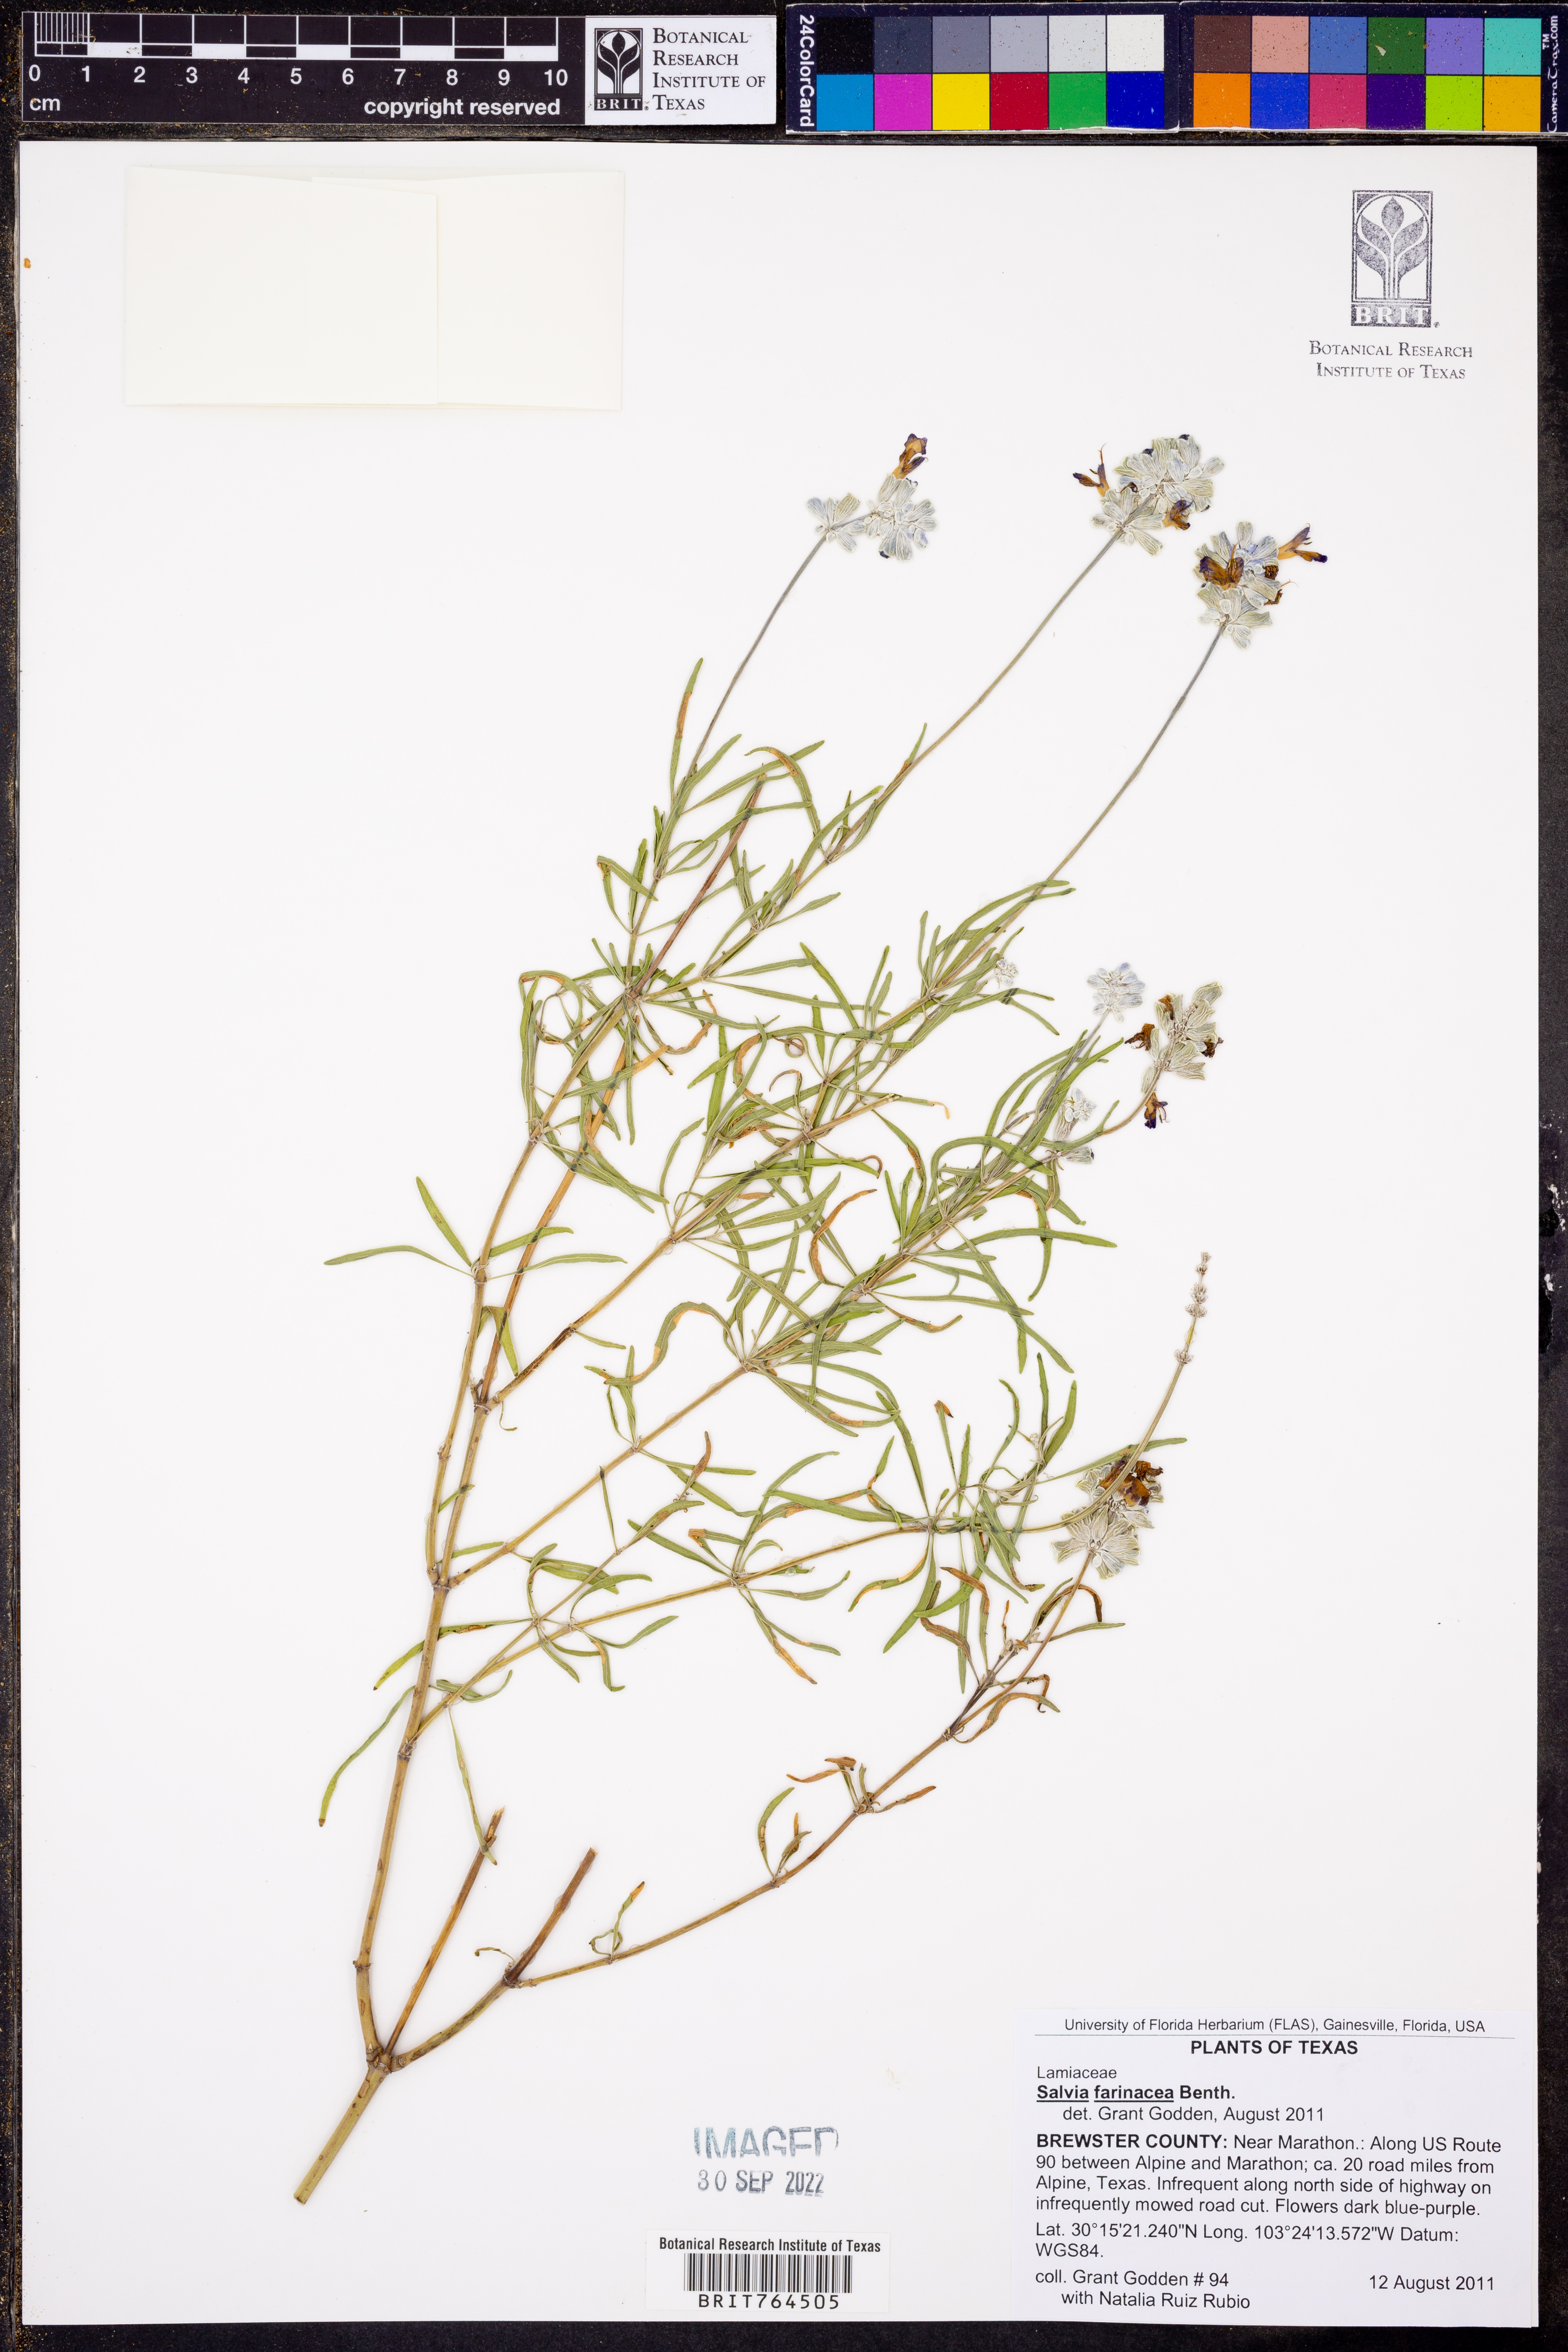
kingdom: Plantae
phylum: Tracheophyta
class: Magnoliopsida
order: Lamiales
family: Lamiaceae
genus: Salvia
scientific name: Salvia farinacea
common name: Mealy sage
